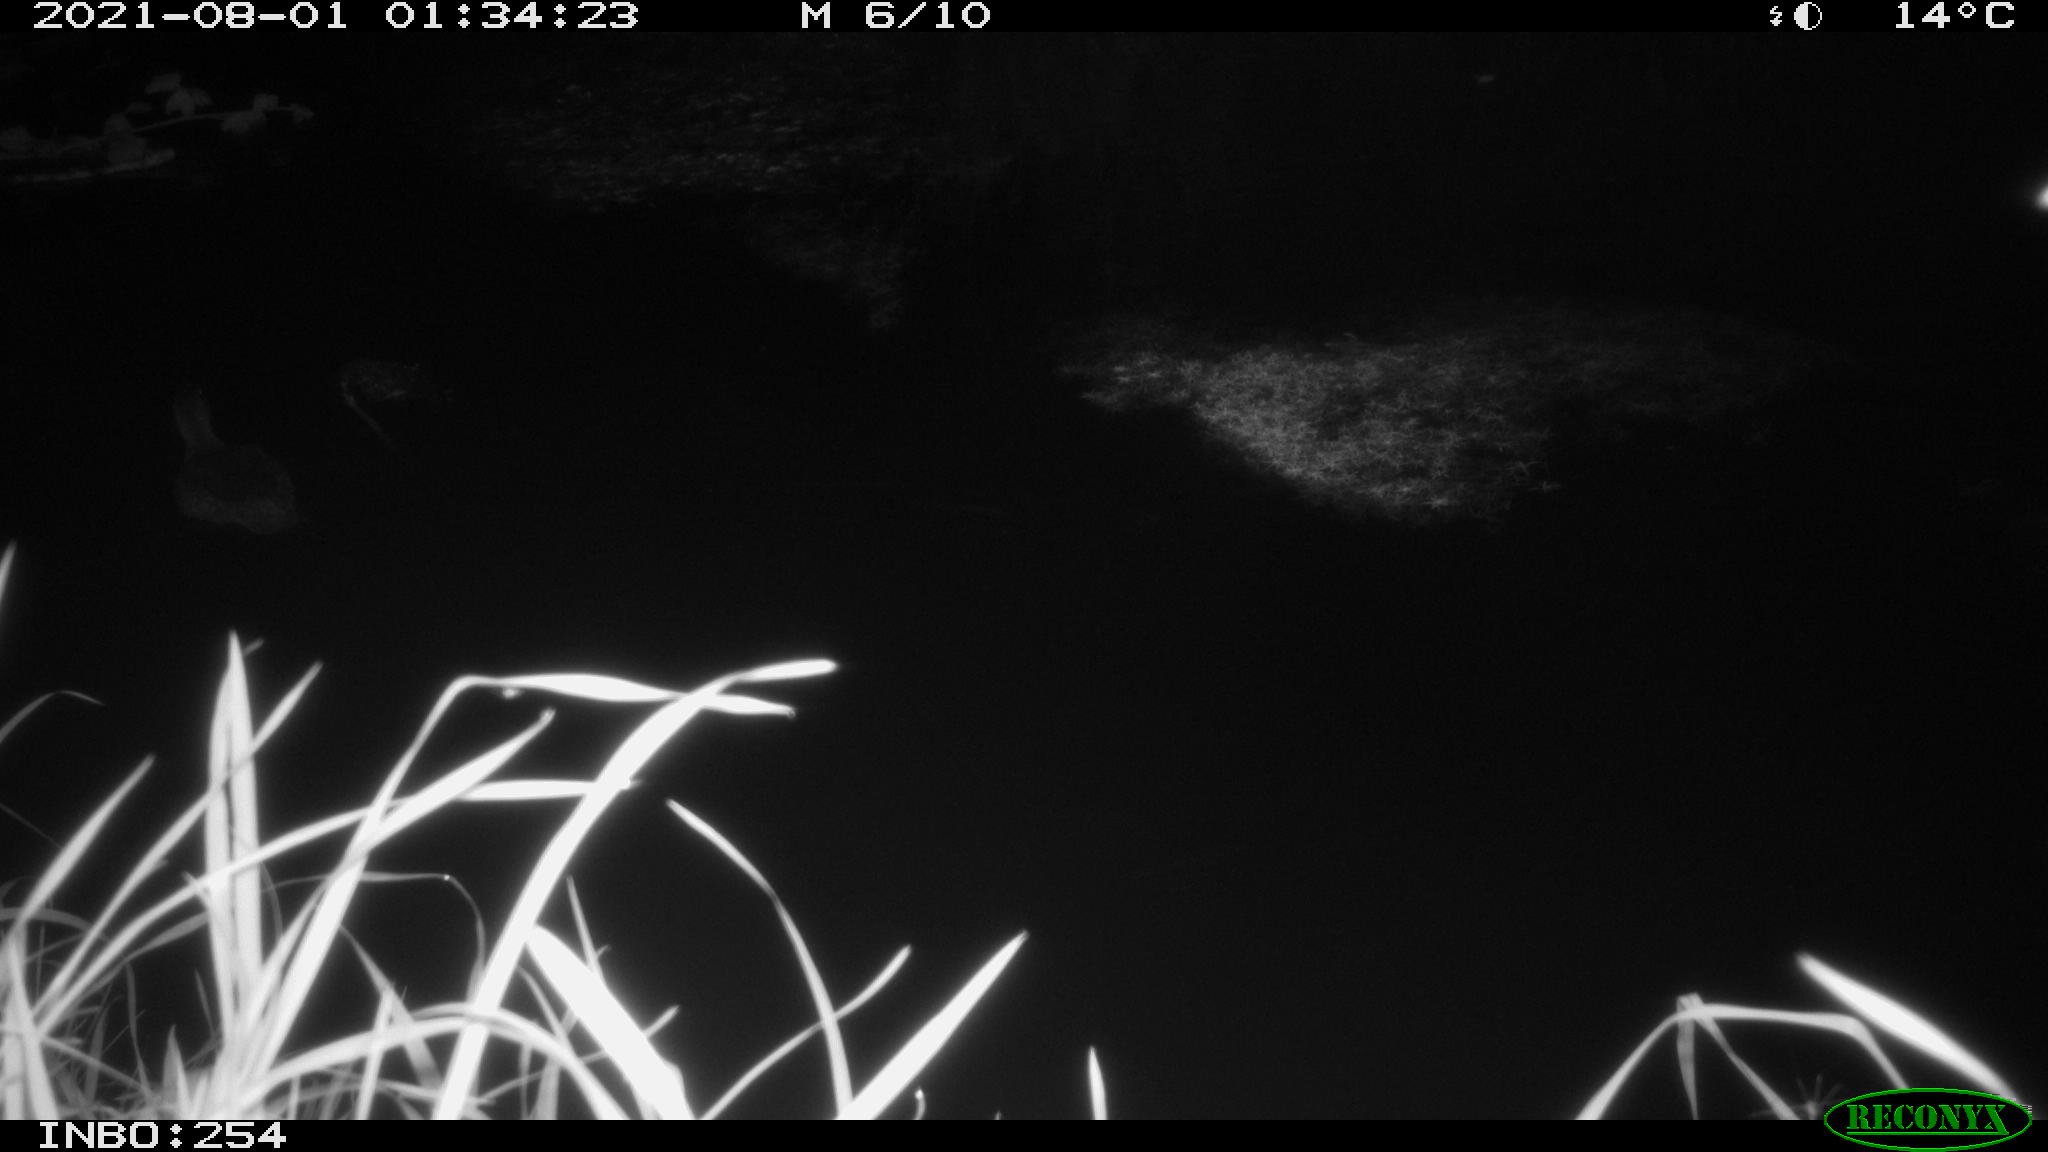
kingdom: Animalia
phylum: Chordata
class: Aves
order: Anseriformes
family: Anatidae
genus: Anas
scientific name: Anas platyrhynchos
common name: Mallard
